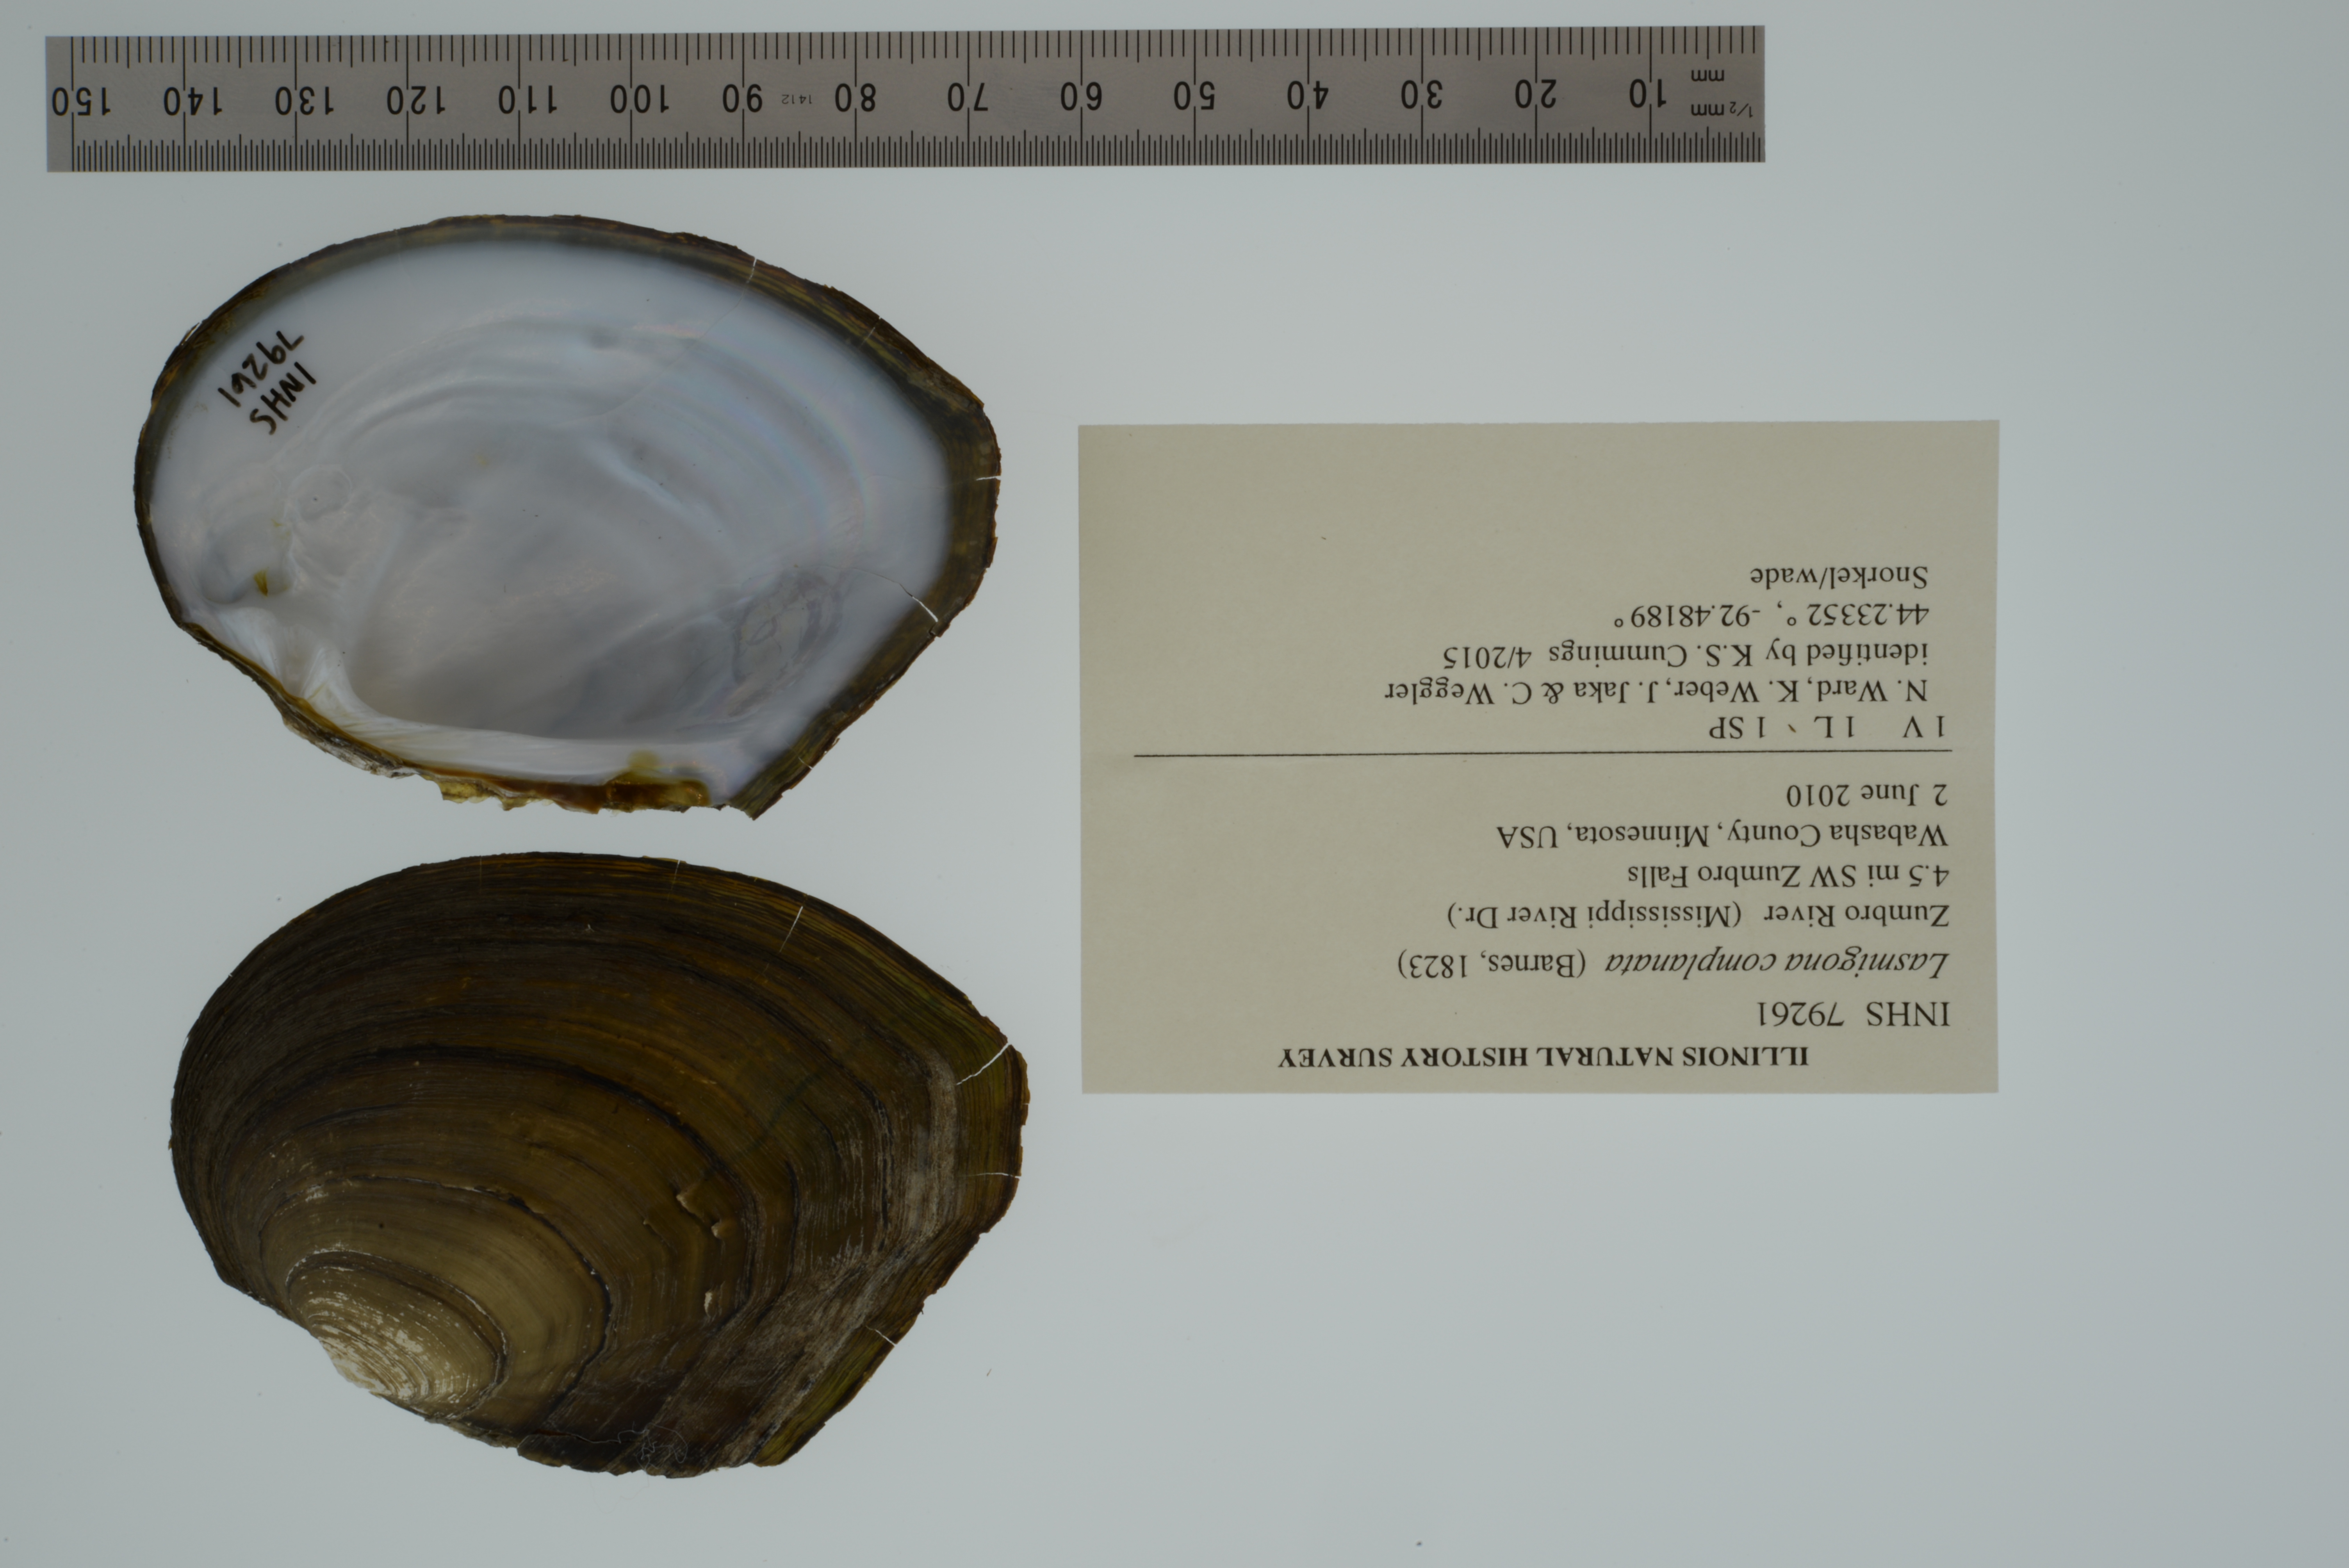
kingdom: Animalia
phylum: Mollusca
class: Bivalvia
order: Unionida
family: Unionidae
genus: Lasmigona
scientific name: Lasmigona complanata
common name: White heelsplitter
